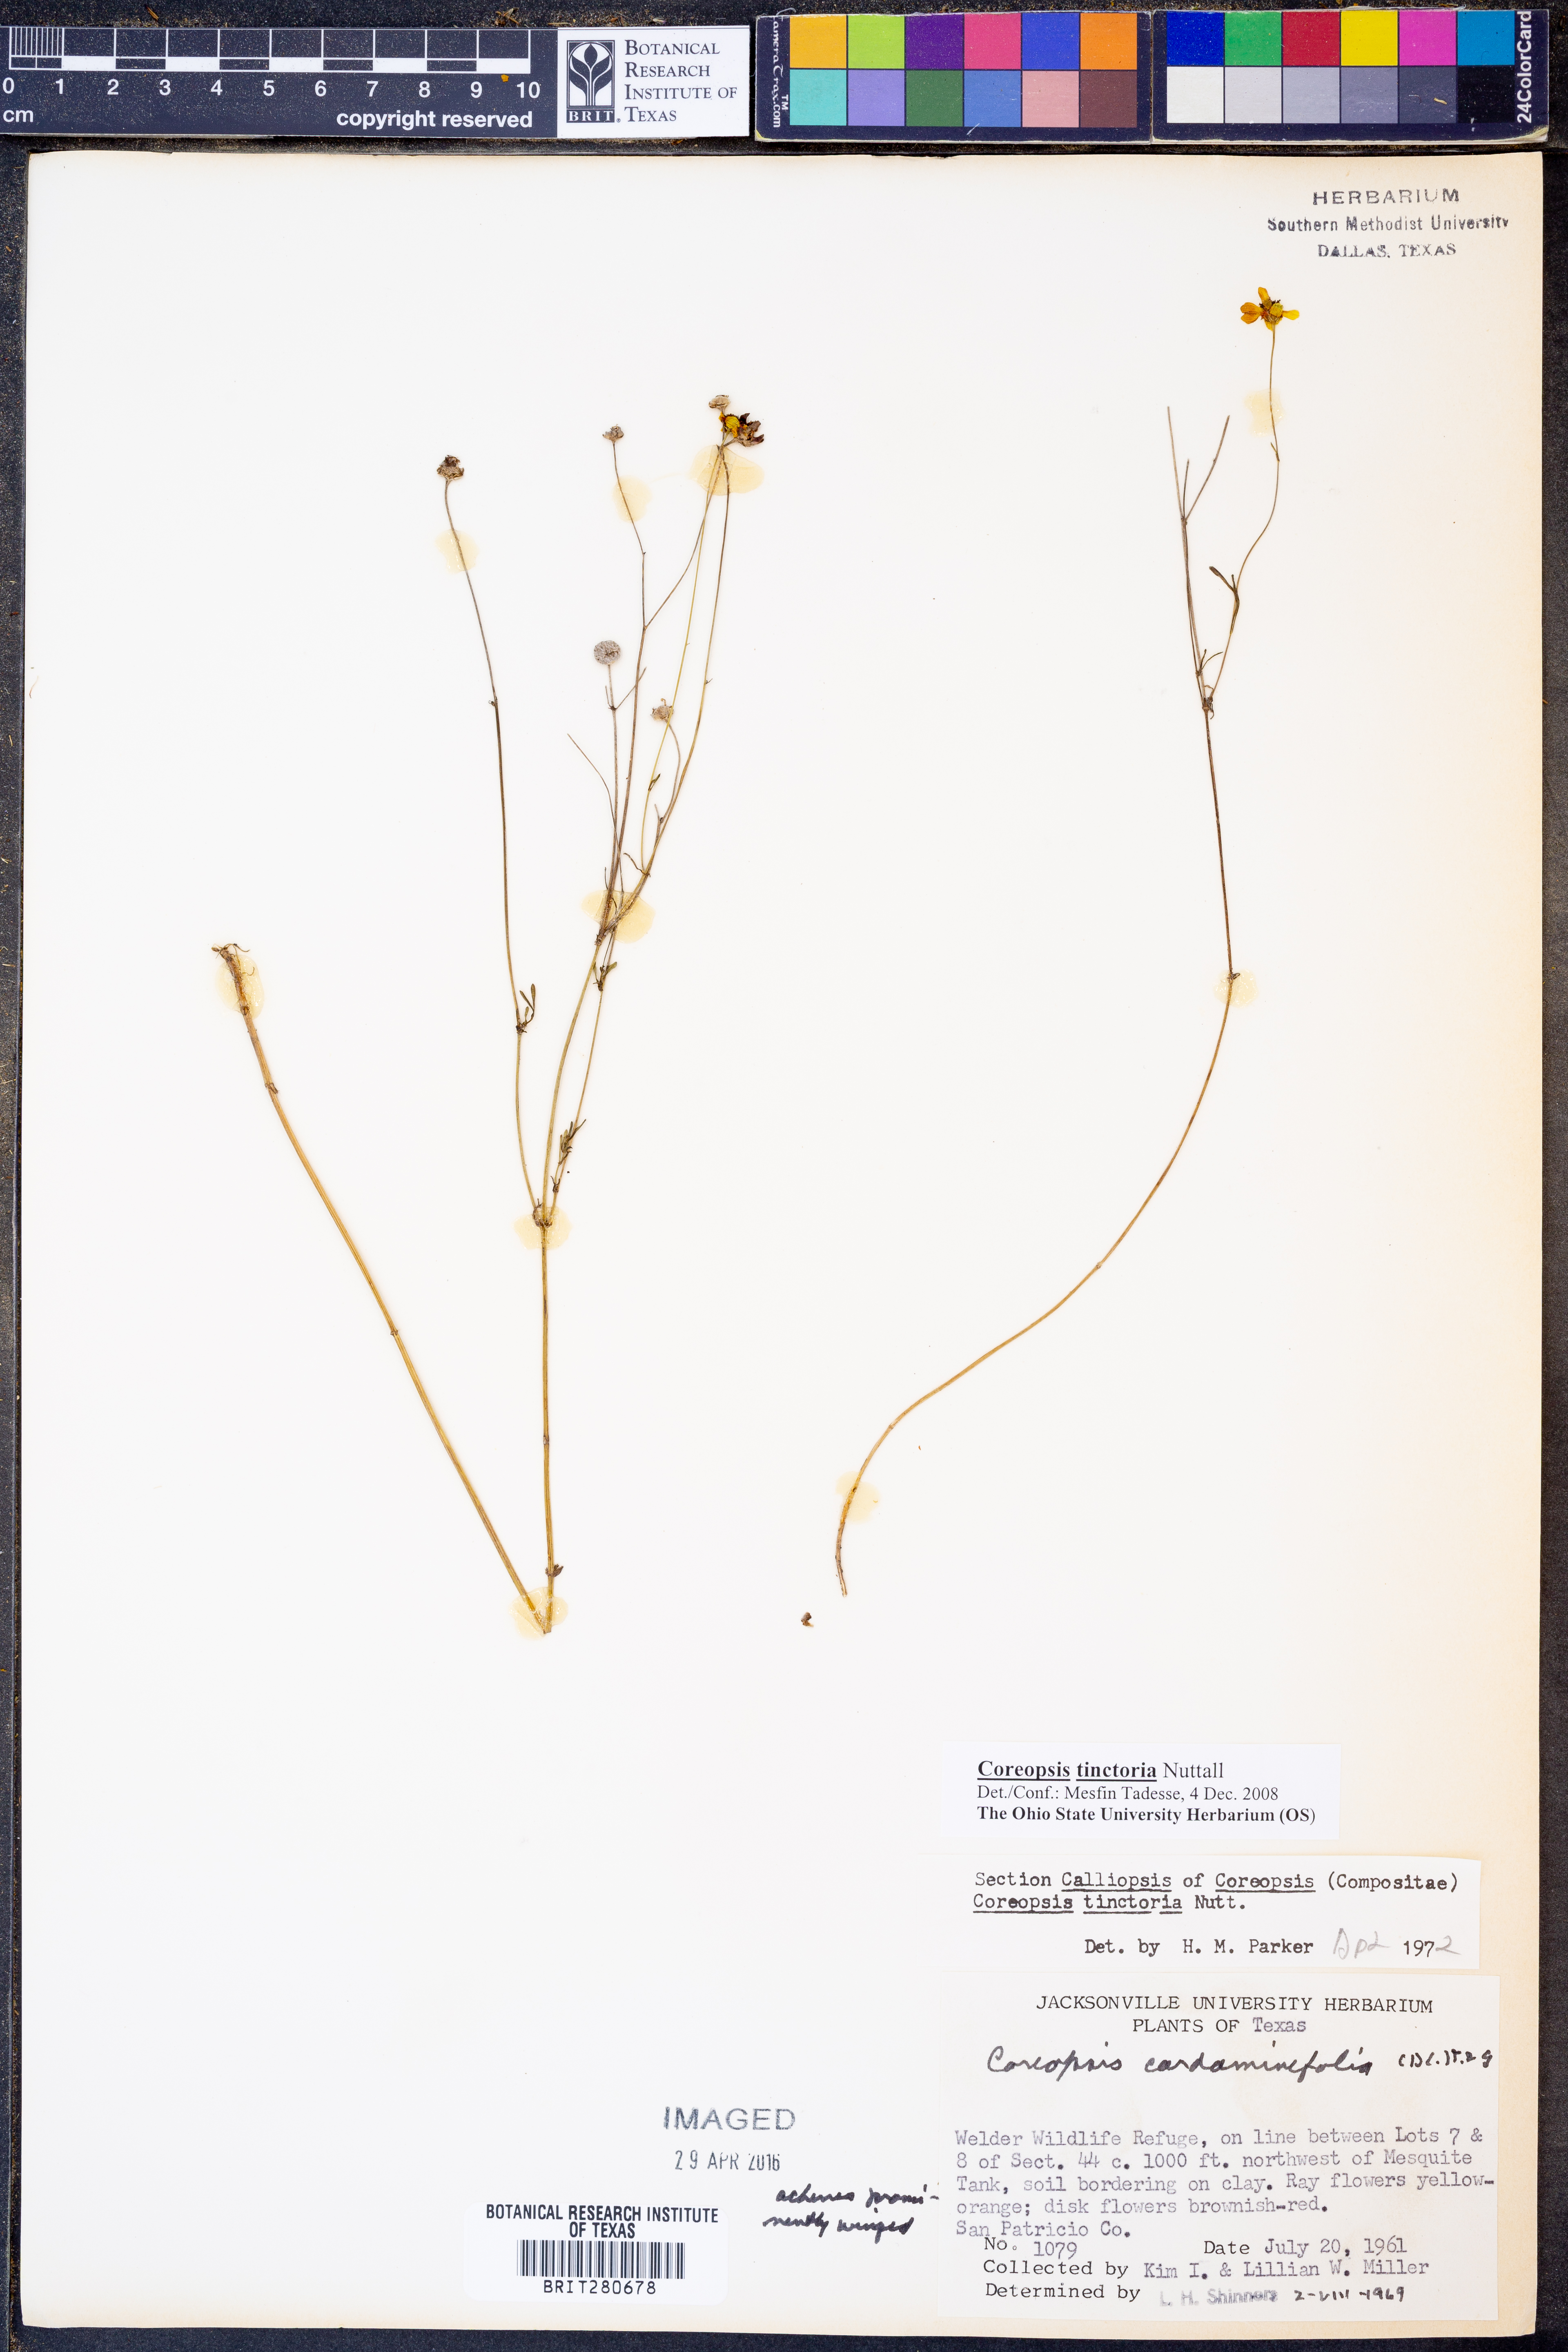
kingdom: Plantae
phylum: Tracheophyta
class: Magnoliopsida
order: Asterales
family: Asteraceae
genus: Coreopsis
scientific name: Coreopsis tinctoria
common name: Garden tickseed
